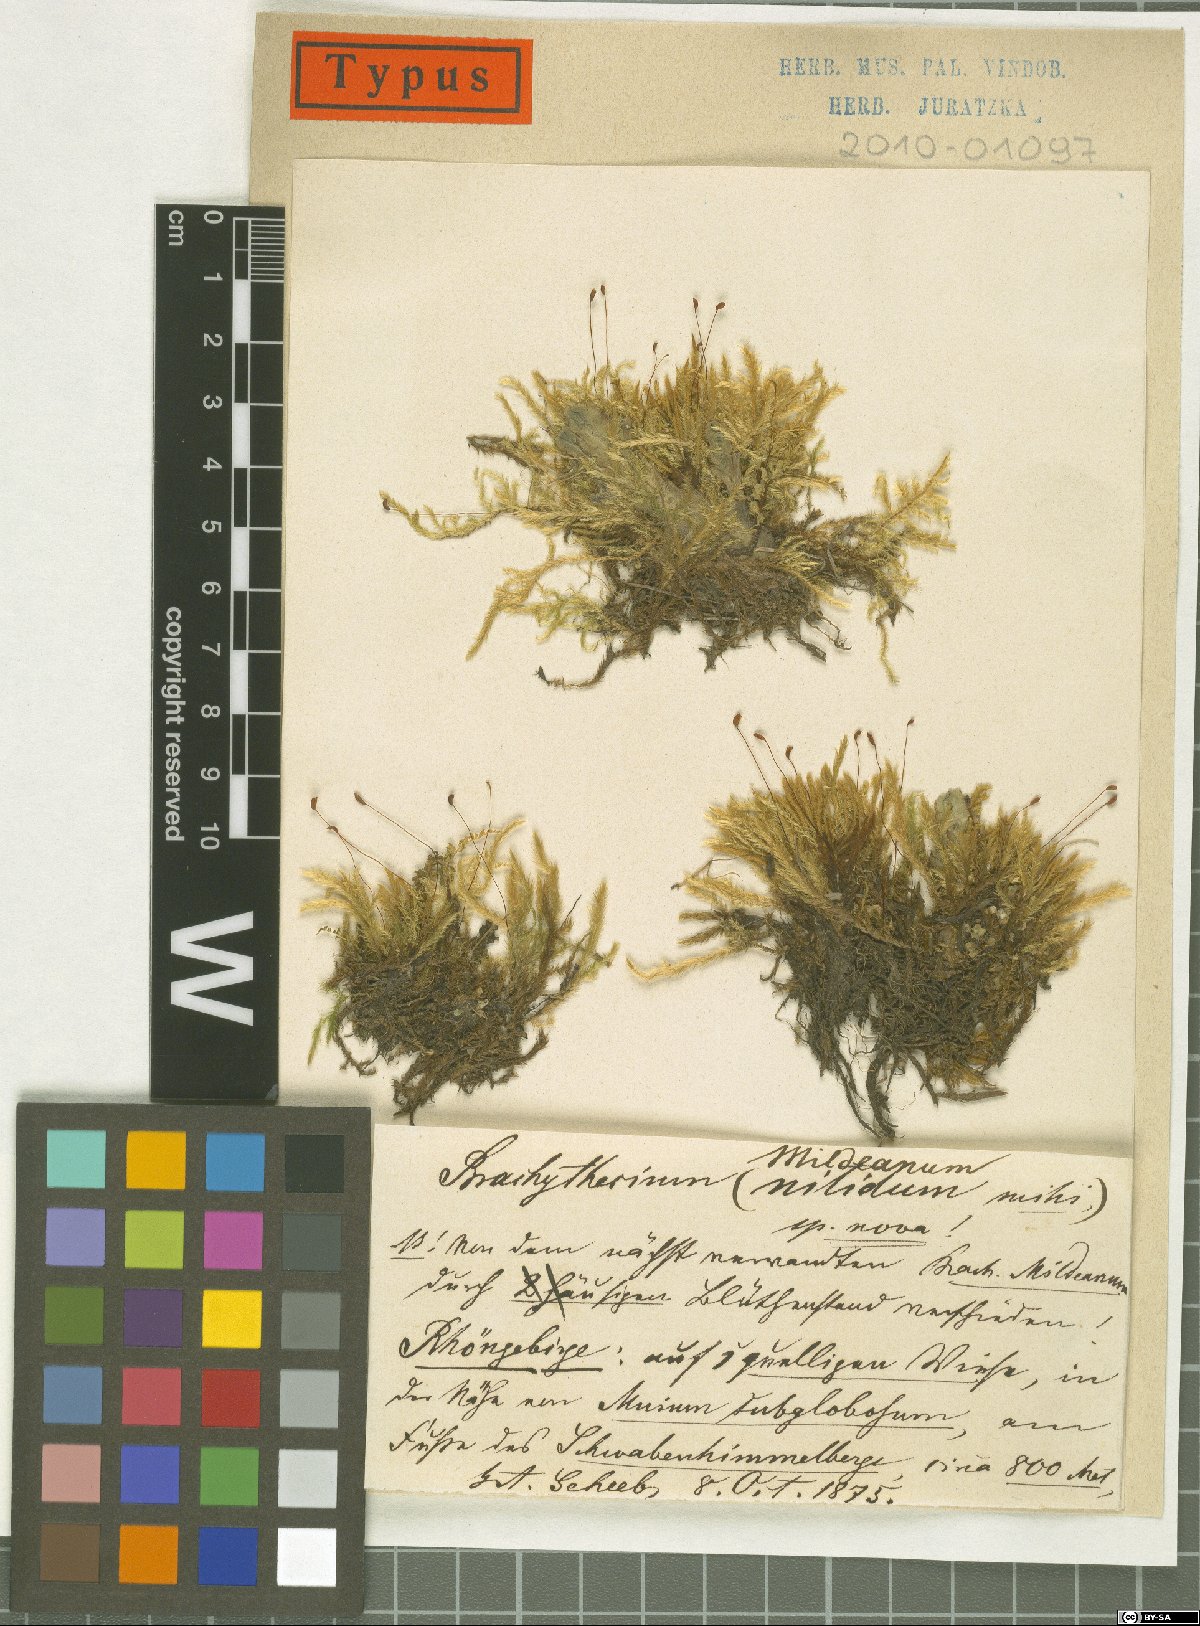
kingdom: Plantae
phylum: Bryophyta
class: Bryopsida
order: Hypnales
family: Brachytheciaceae
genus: Brachythecium
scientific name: Brachythecium nitidulum
